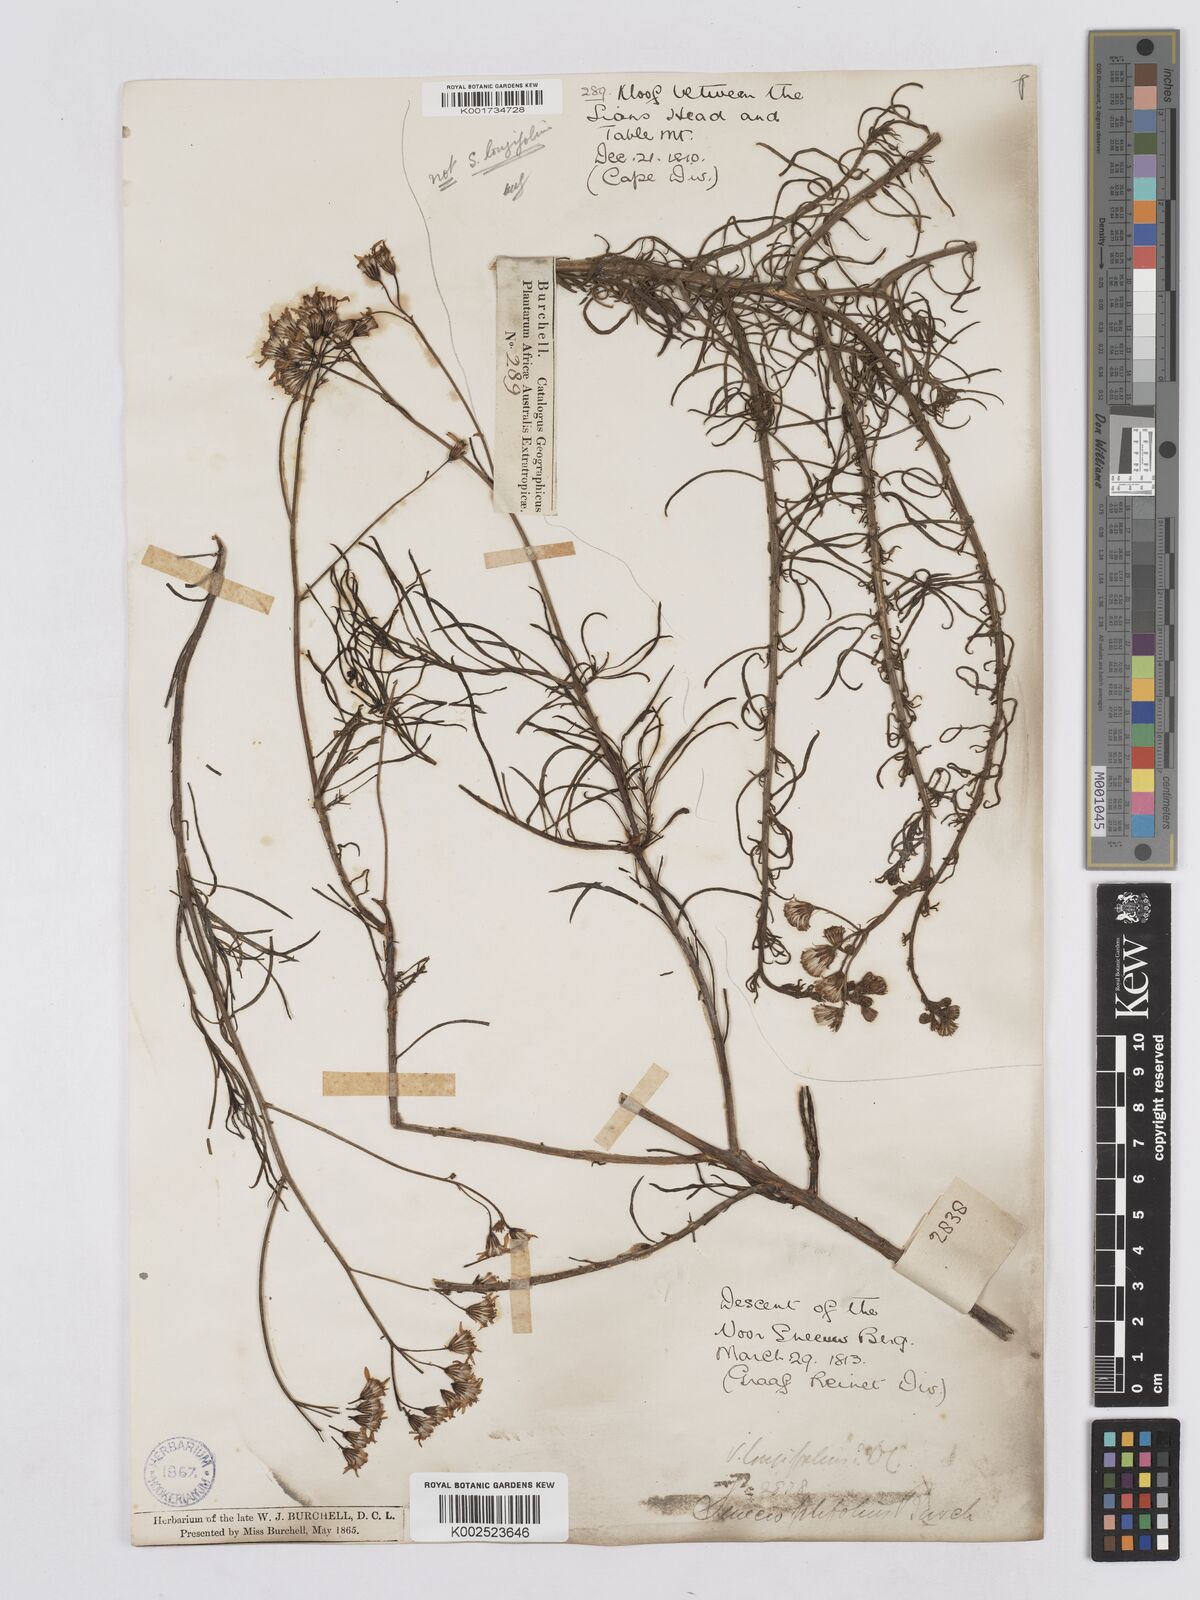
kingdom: Plantae
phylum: Tracheophyta
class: Magnoliopsida
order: Asterales
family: Asteraceae
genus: Senecio
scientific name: Senecio linifolius
